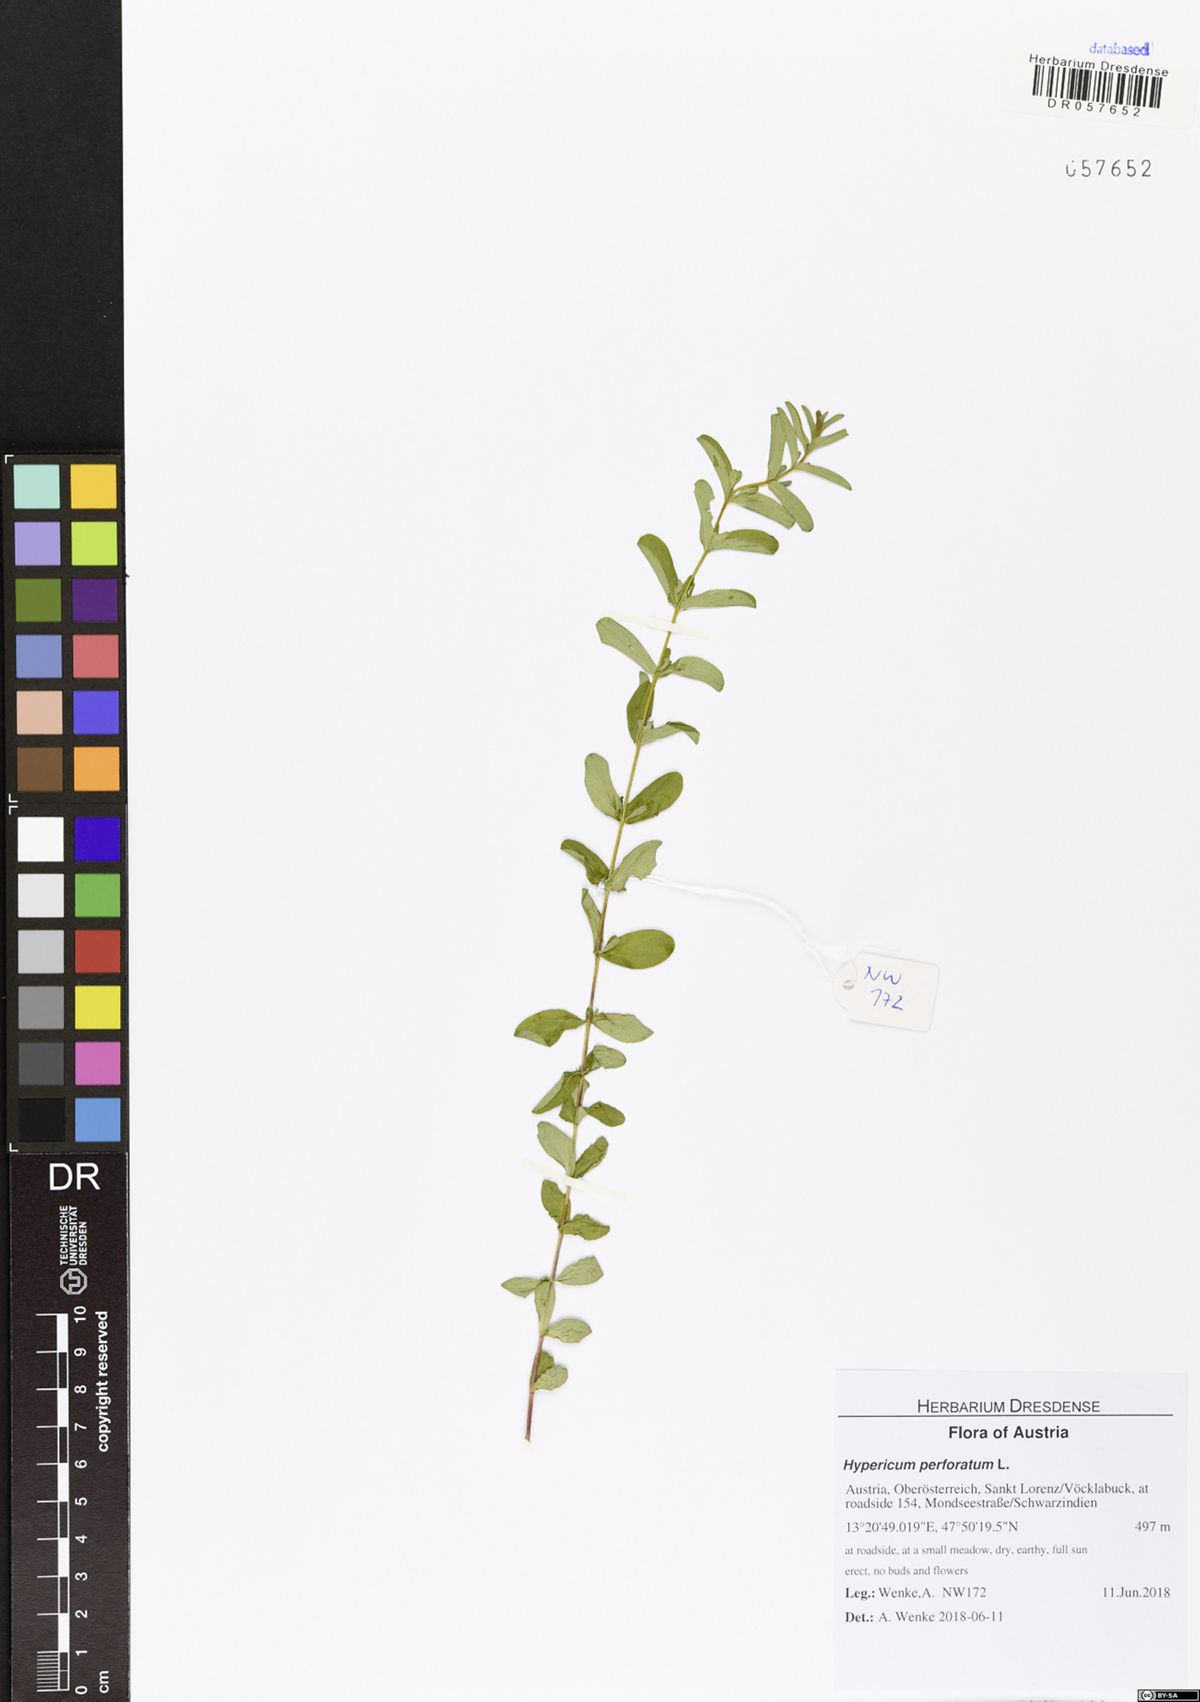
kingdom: Plantae
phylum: Tracheophyta
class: Magnoliopsida
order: Malpighiales
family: Hypericaceae
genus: Hypericum
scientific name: Hypericum perforatum
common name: Common st. johnswort
